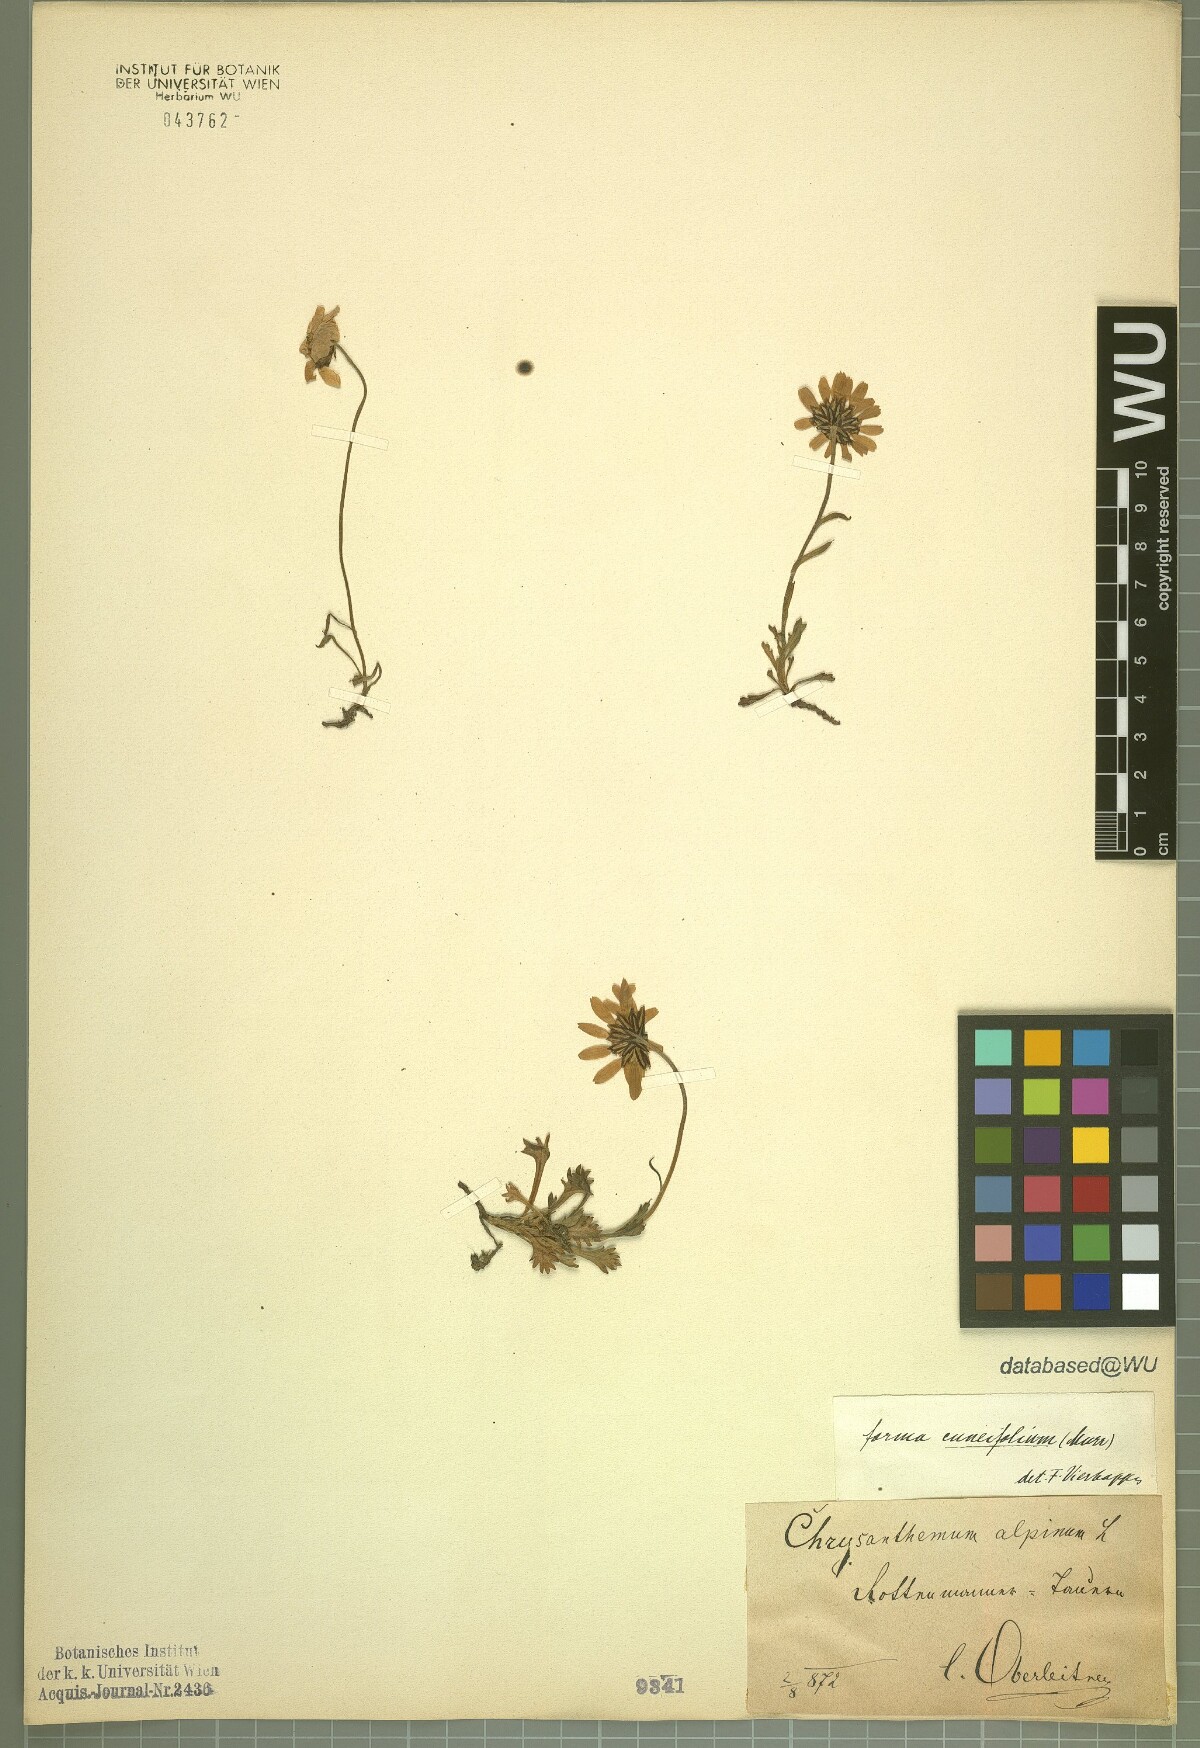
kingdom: Plantae
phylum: Tracheophyta
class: Magnoliopsida
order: Asterales
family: Asteraceae
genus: Leucanthemopsis
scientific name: Leucanthemopsis alpina
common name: Alpine moon daisy
